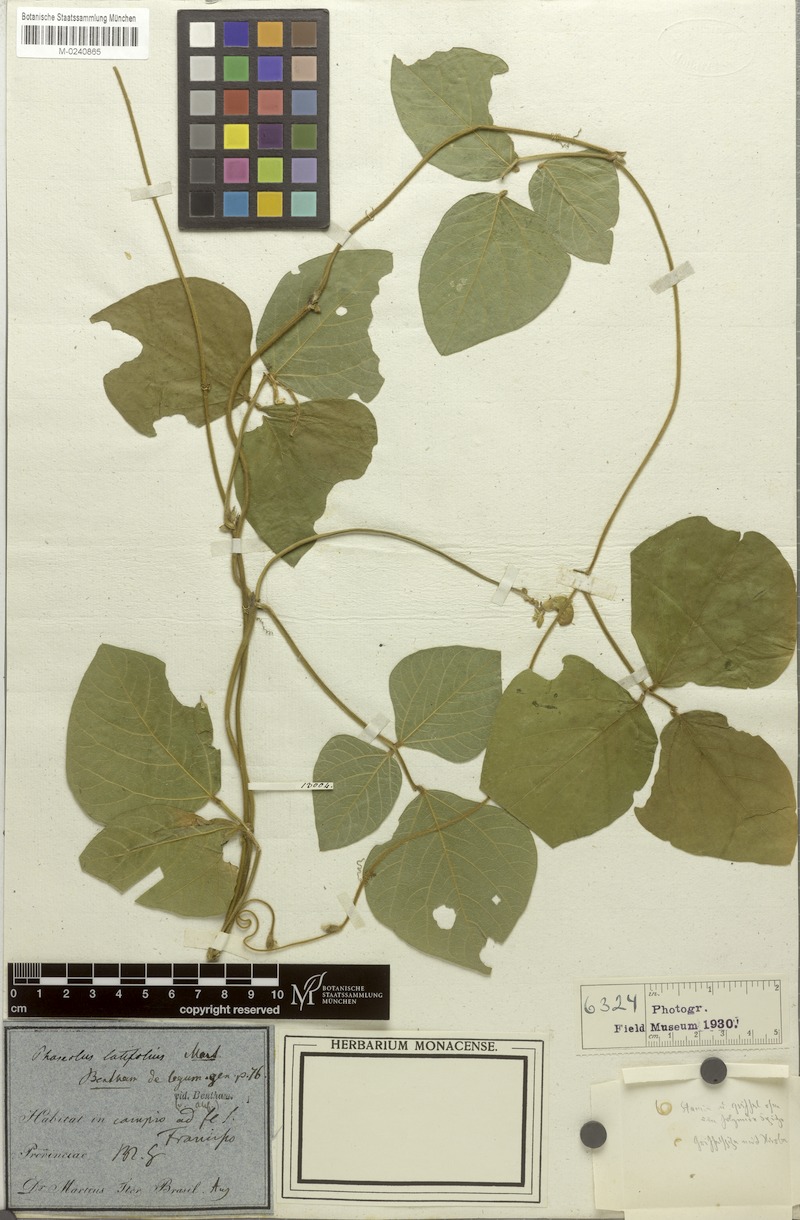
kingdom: Plantae
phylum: Tracheophyta
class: Magnoliopsida
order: Fabales
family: Fabaceae
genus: Leptospron
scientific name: Leptospron adenanthum
